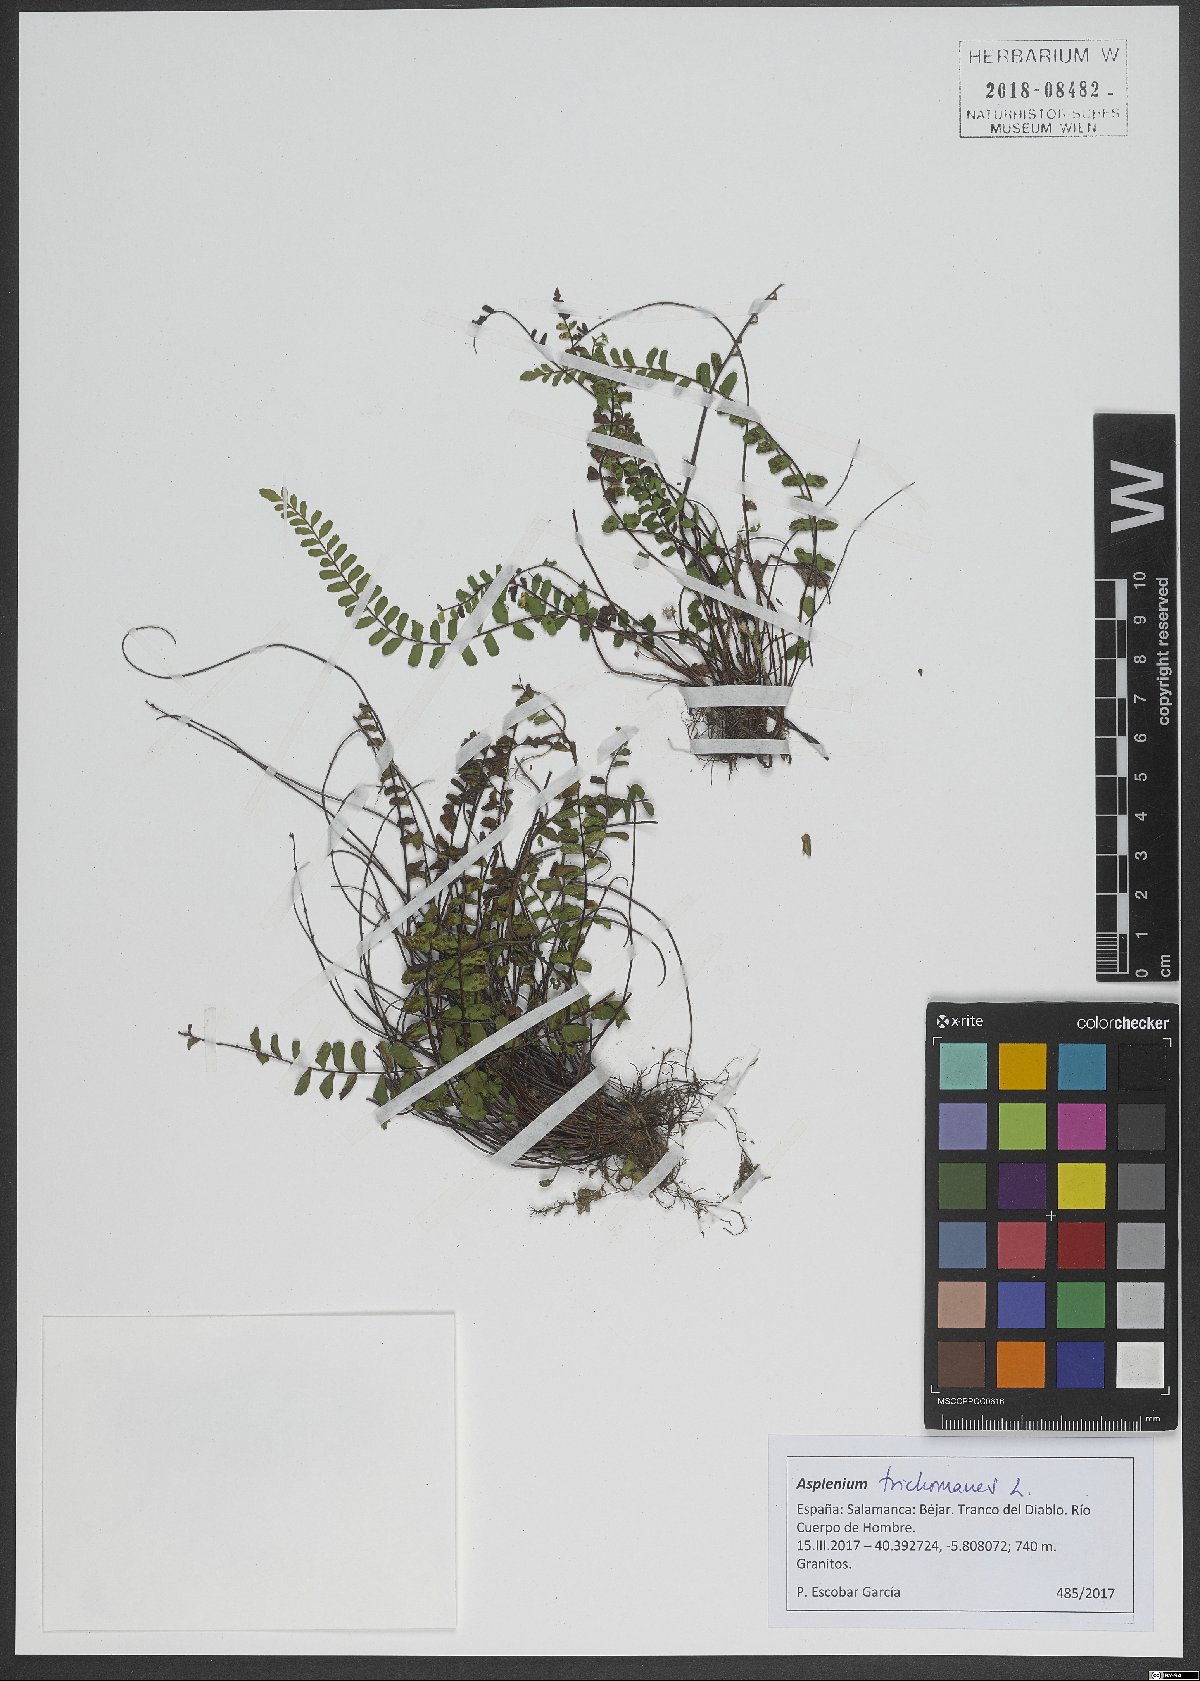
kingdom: Plantae
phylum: Tracheophyta
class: Polypodiopsida
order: Polypodiales
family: Aspleniaceae
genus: Asplenium
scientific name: Asplenium trichomanes
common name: Maidenhair spleenwort
